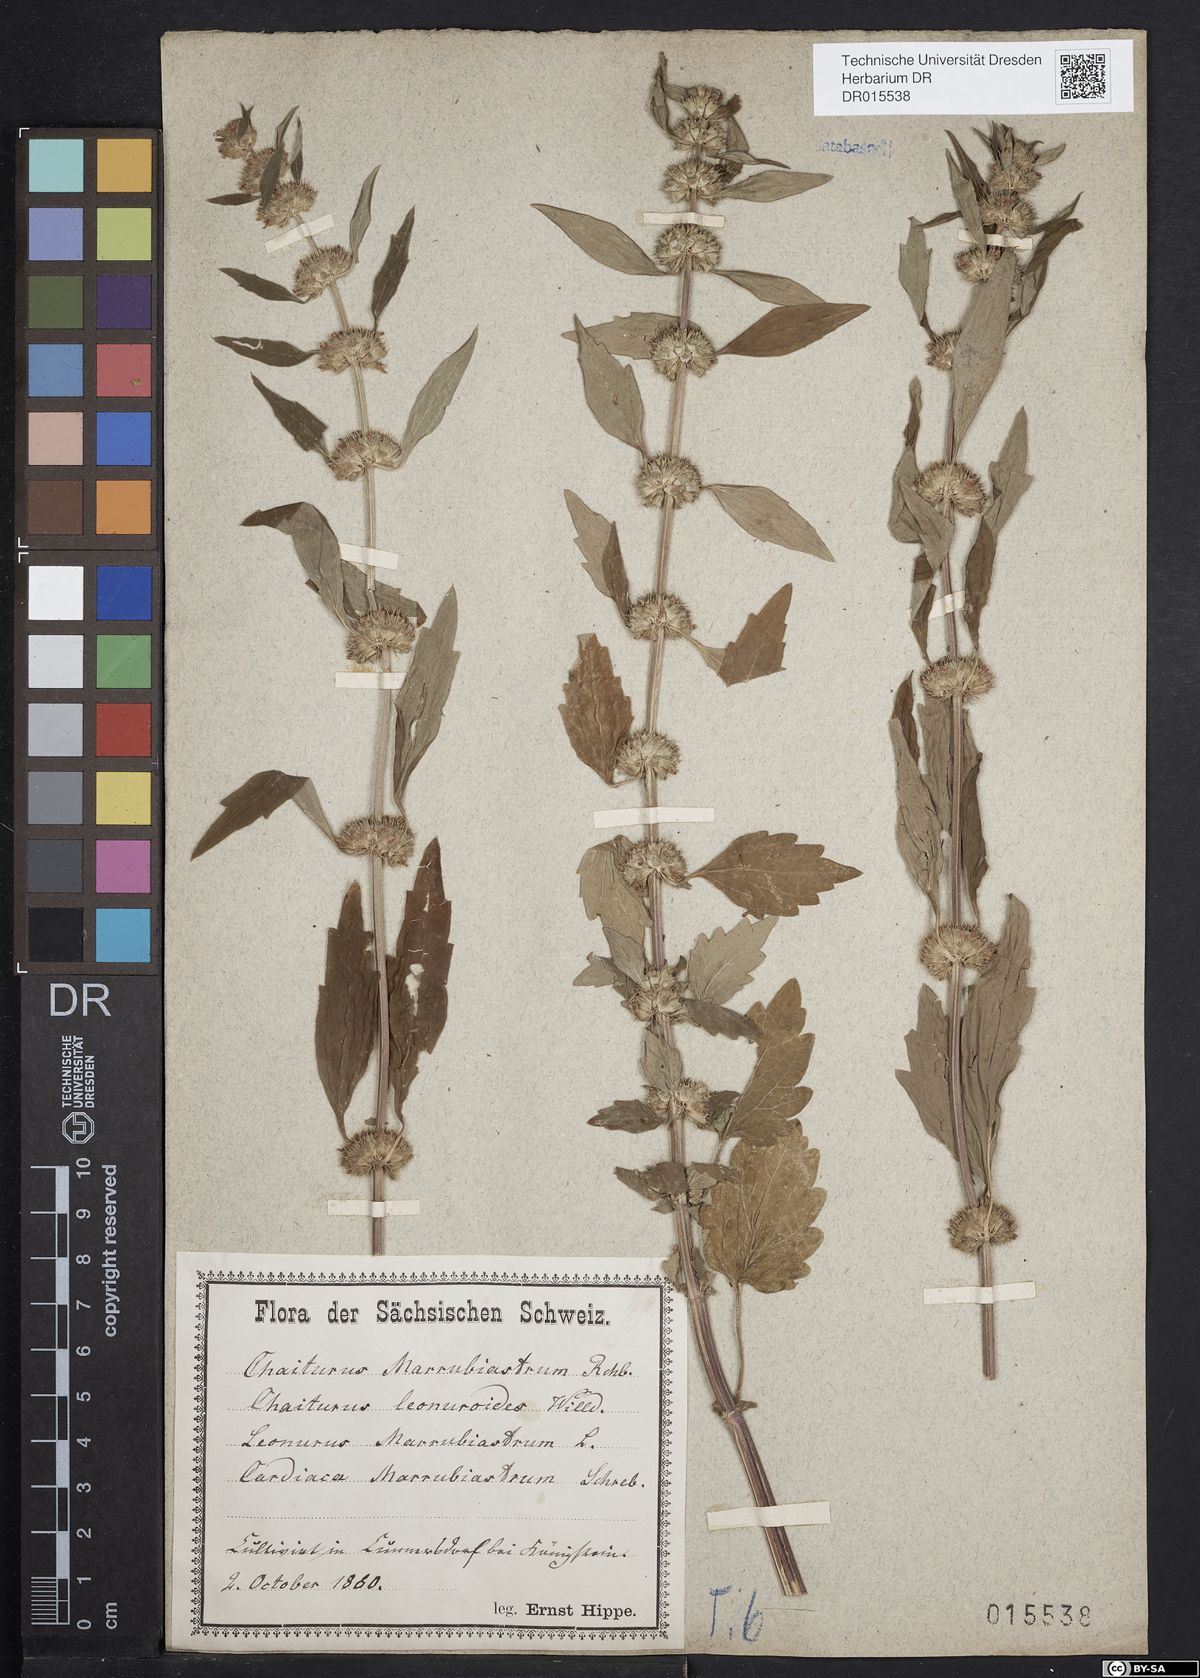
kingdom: Plantae
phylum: Tracheophyta
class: Magnoliopsida
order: Lamiales
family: Lamiaceae
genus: Chaiturus
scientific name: Chaiturus marrubiastrum
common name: Lion's tail
